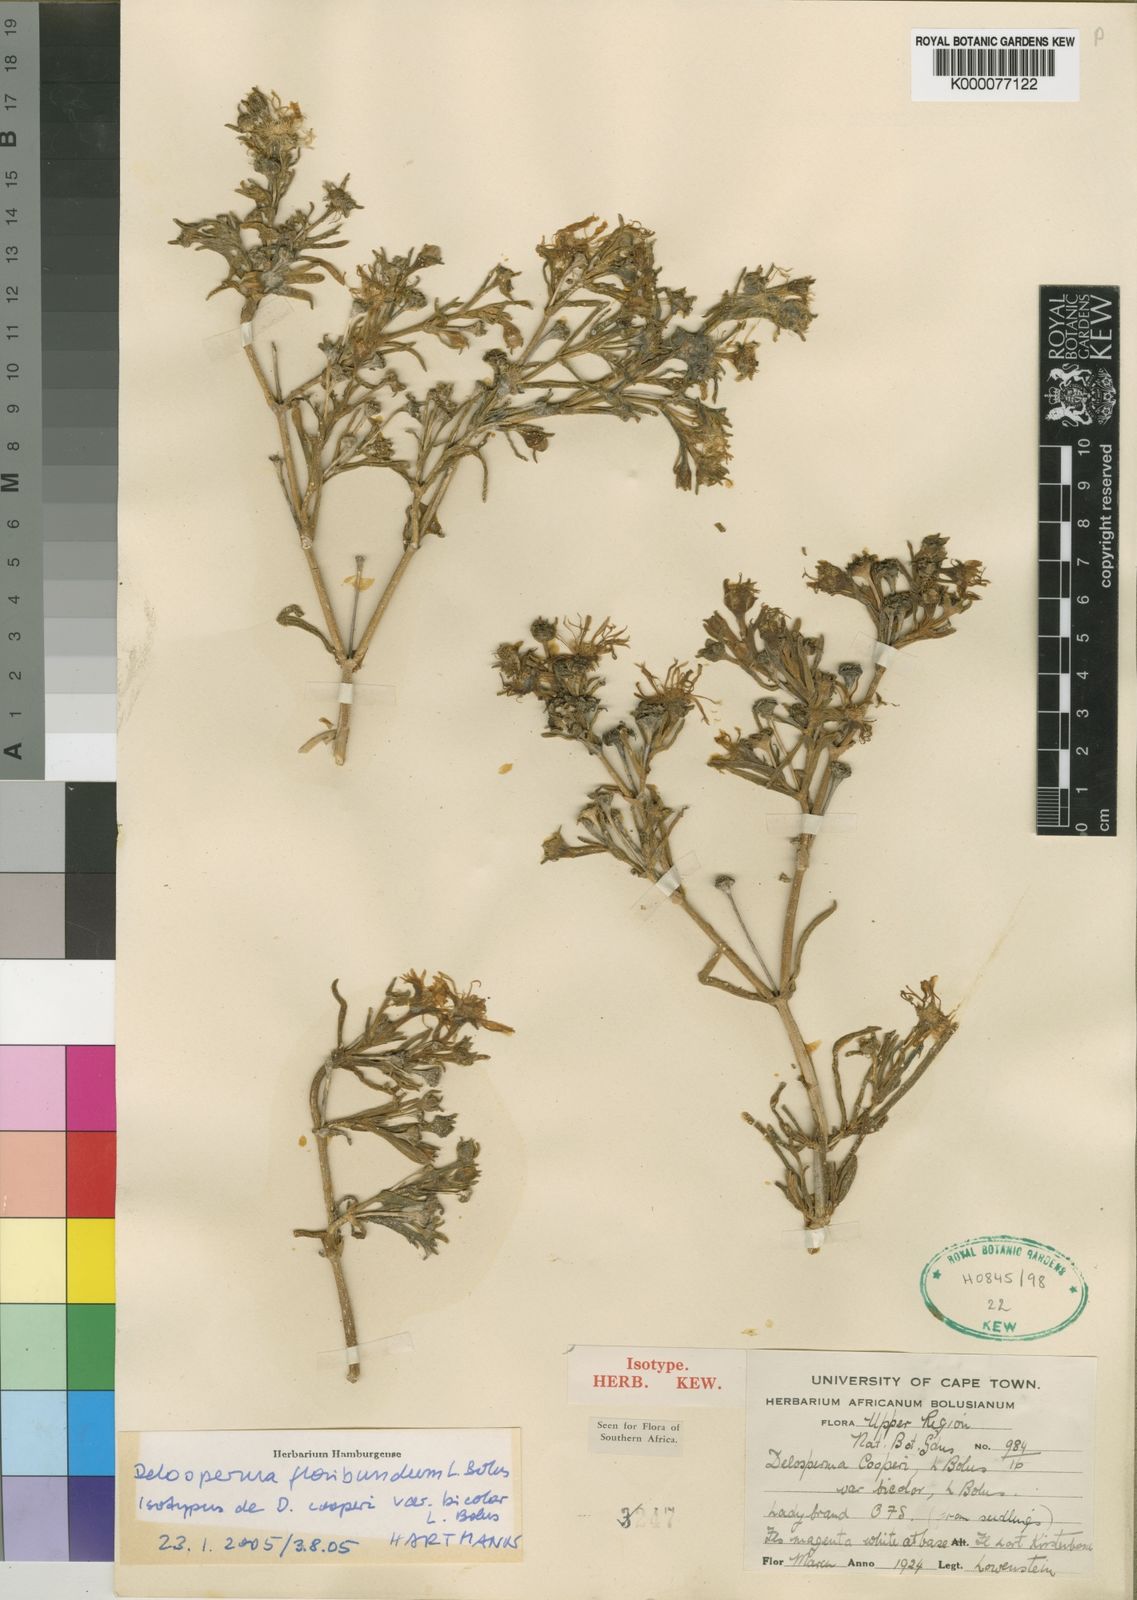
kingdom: Plantae
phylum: Tracheophyta
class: Magnoliopsida
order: Caryophyllales
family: Aizoaceae
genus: Delosperma
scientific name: Delosperma floribundum
